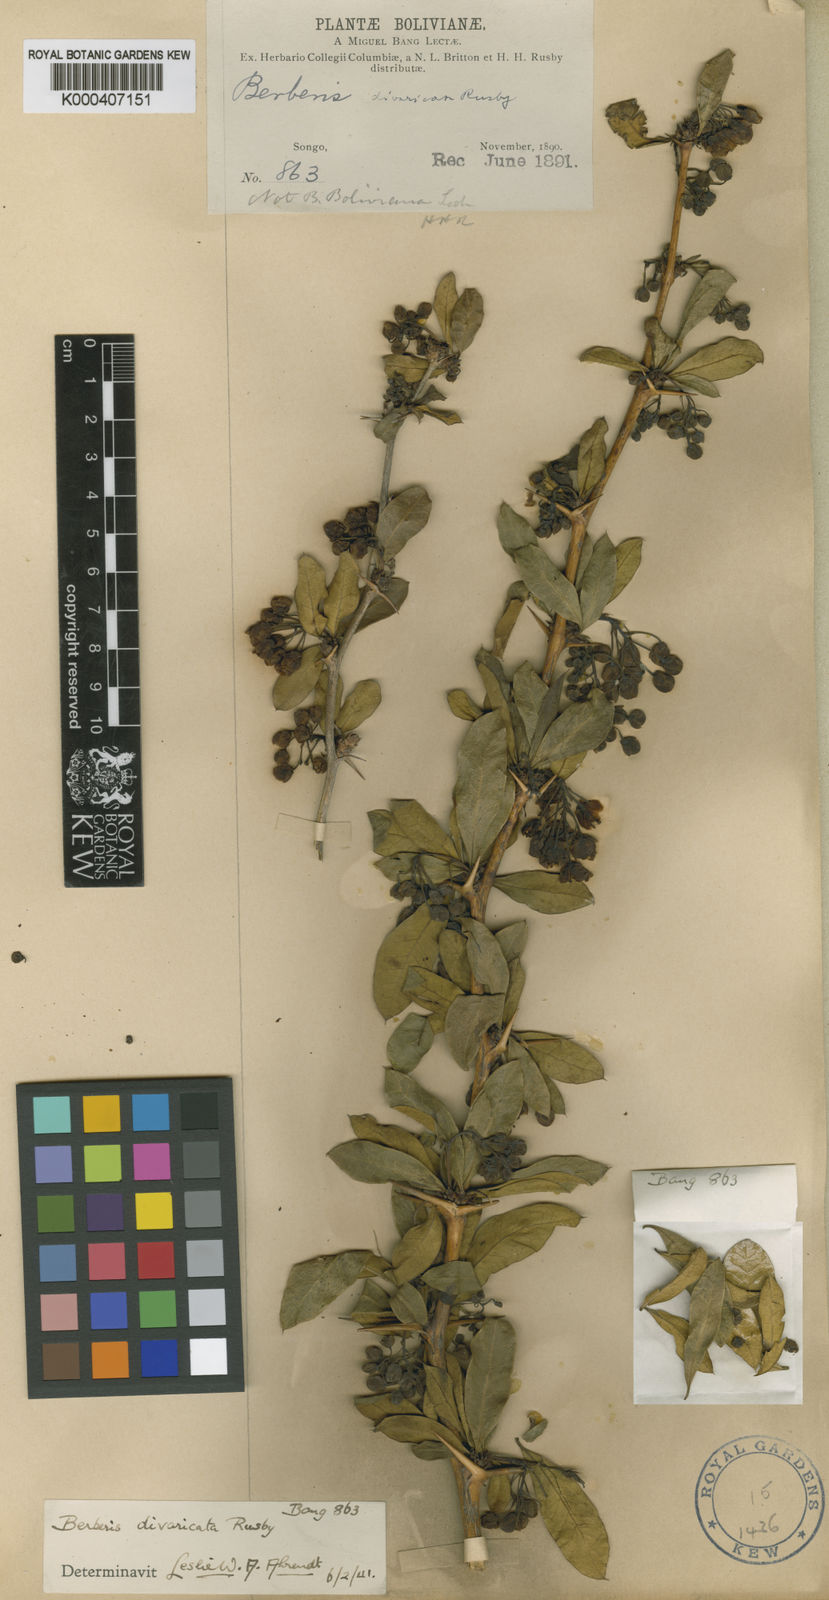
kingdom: Plantae
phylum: Tracheophyta
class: Magnoliopsida
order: Ranunculales
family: Berberidaceae
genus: Berberis
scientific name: Berberis boliviana
